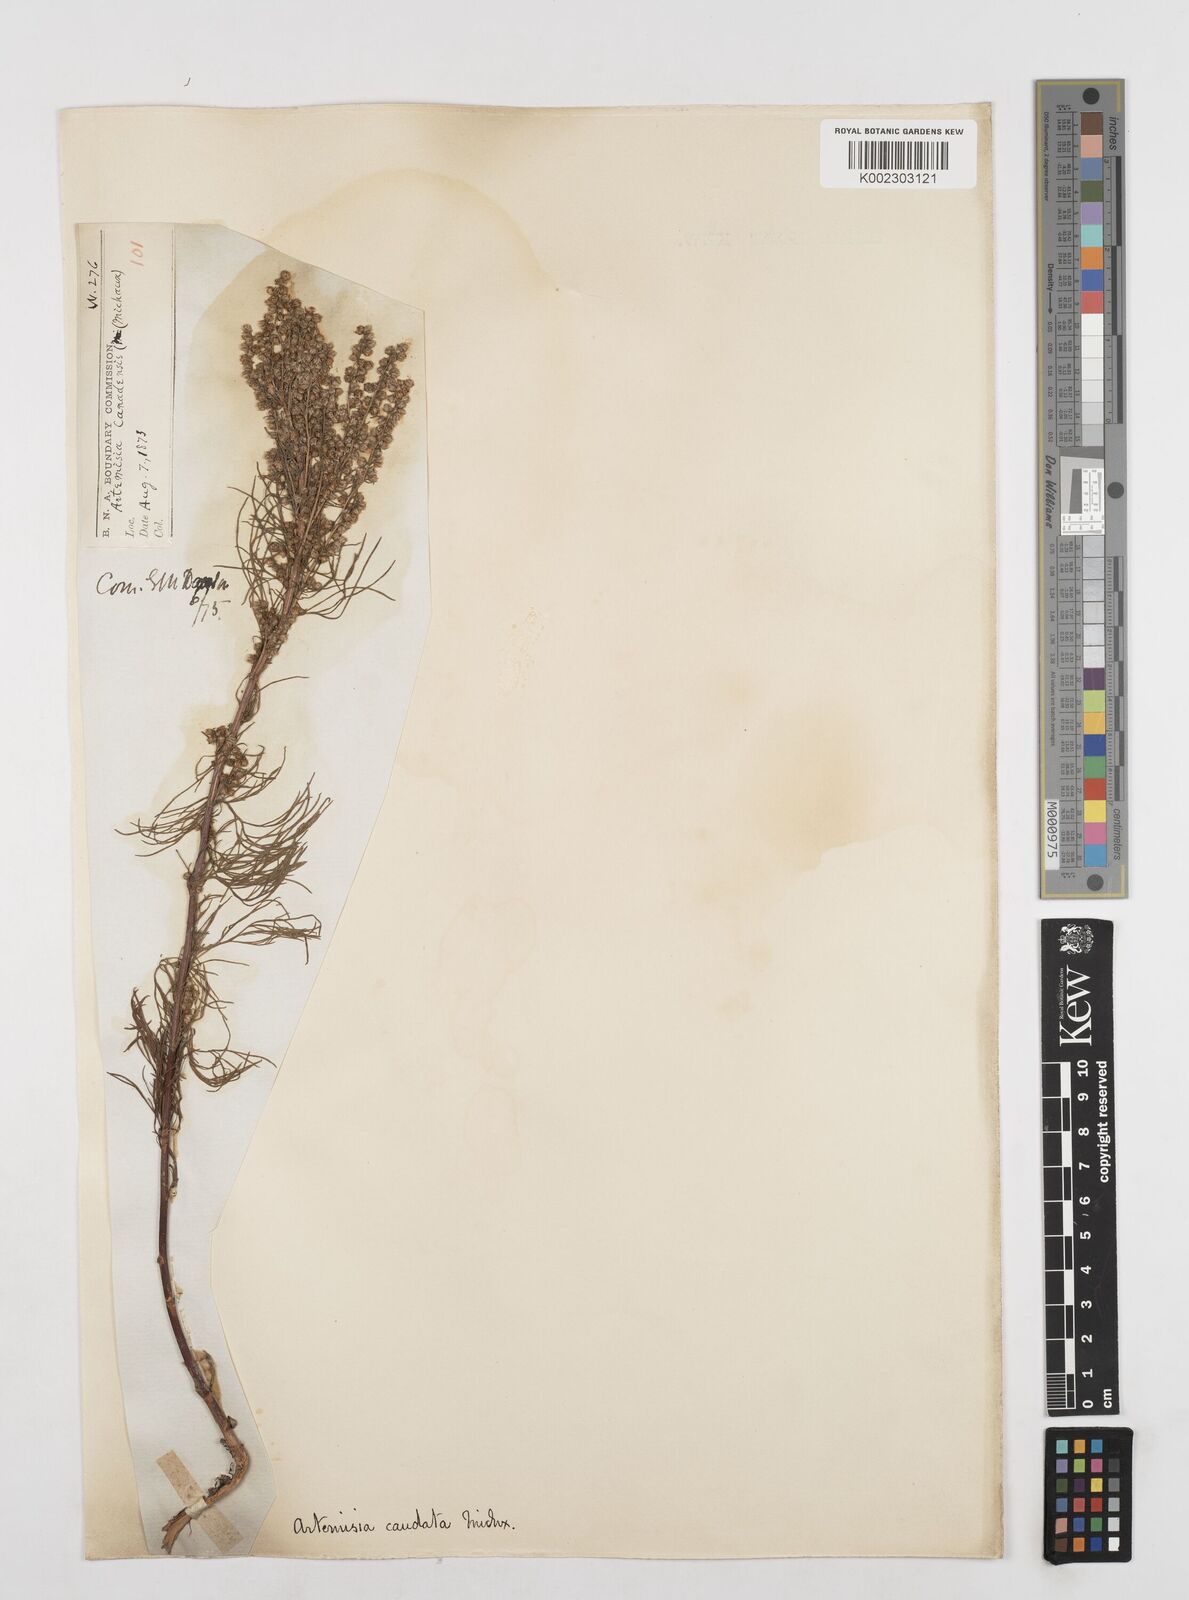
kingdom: Plantae
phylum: Tracheophyta
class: Magnoliopsida
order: Asterales
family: Asteraceae
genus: Artemisia
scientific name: Artemisia campestris
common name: Field wormwood
